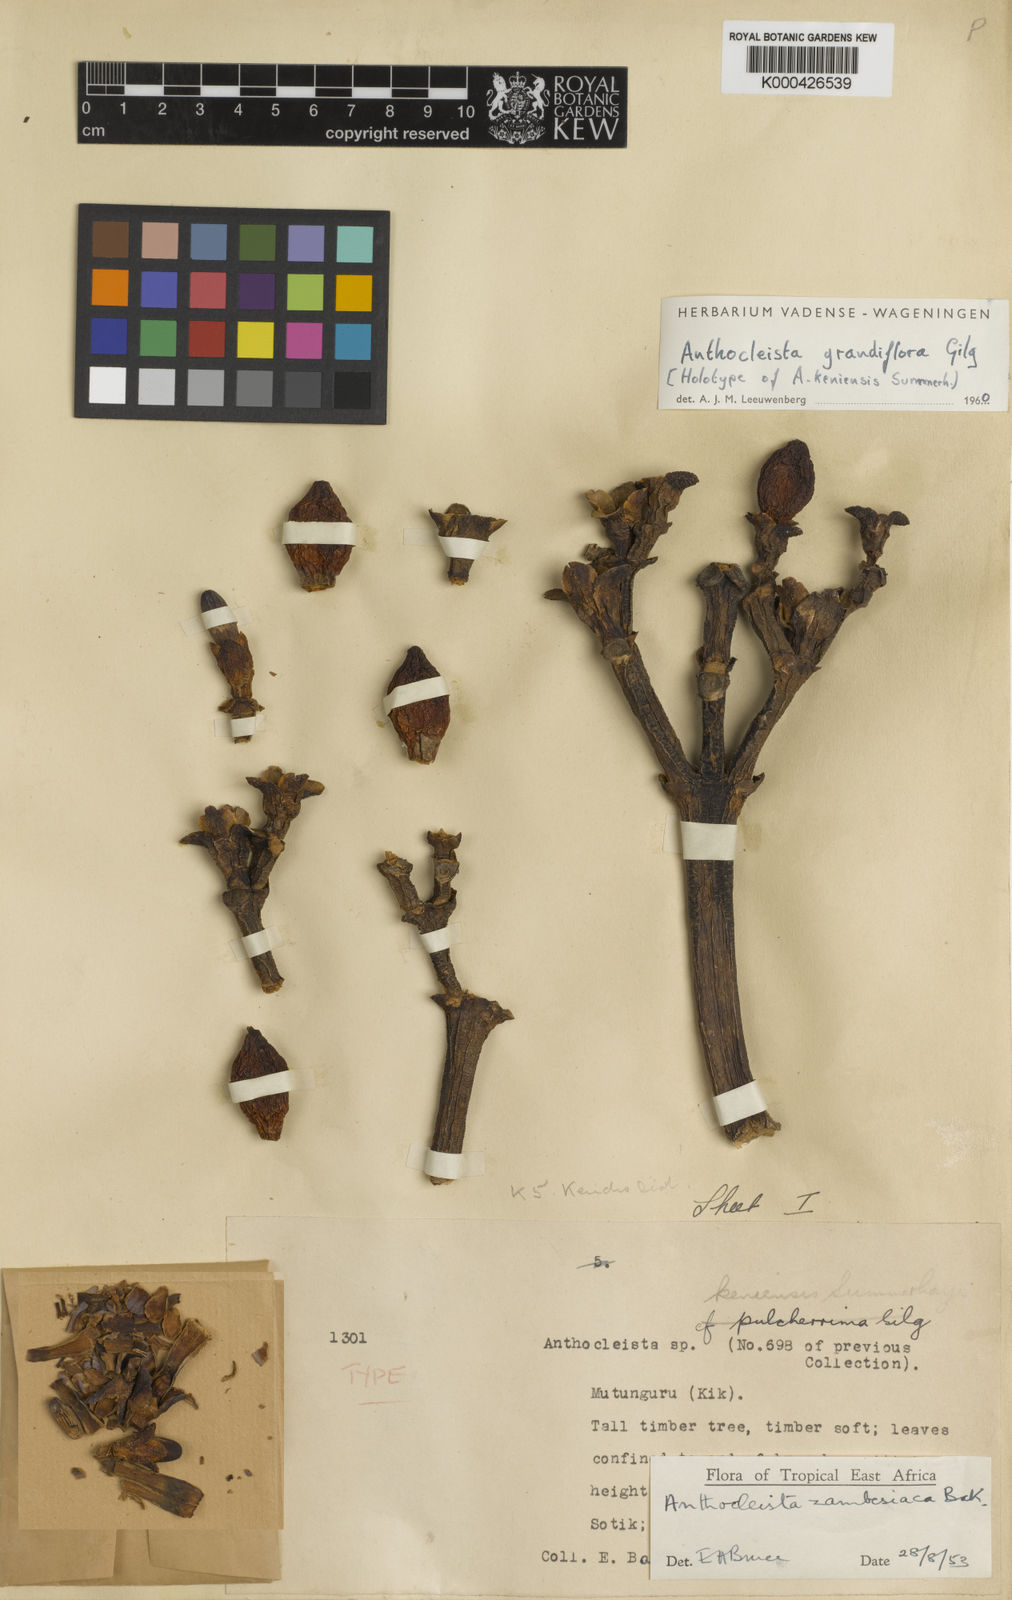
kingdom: Plantae
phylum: Tracheophyta
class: Magnoliopsida
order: Gentianales
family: Gentianaceae
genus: Anthocleista
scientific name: Anthocleista grandiflora
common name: Forest big-leaf
